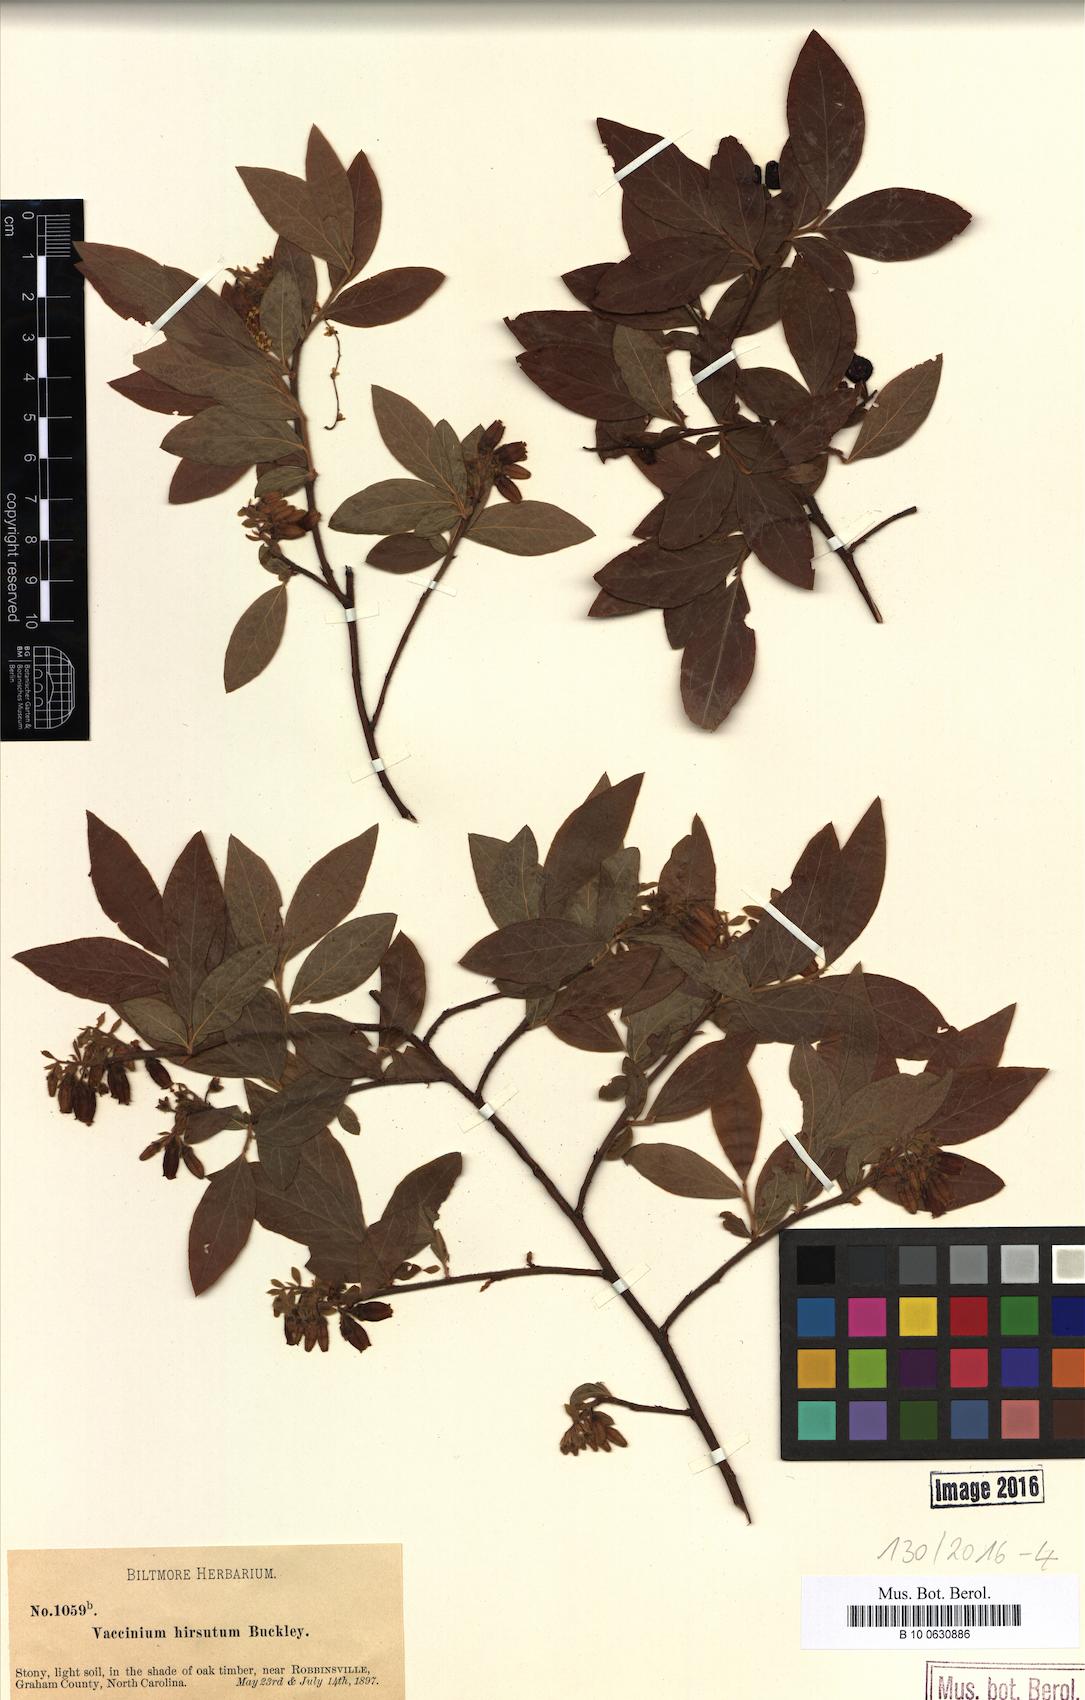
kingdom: Plantae
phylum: Tracheophyta
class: Magnoliopsida
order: Ericales
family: Ericaceae
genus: Vaccinium
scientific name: Vaccinium hirsutum
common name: Woolly-berry
